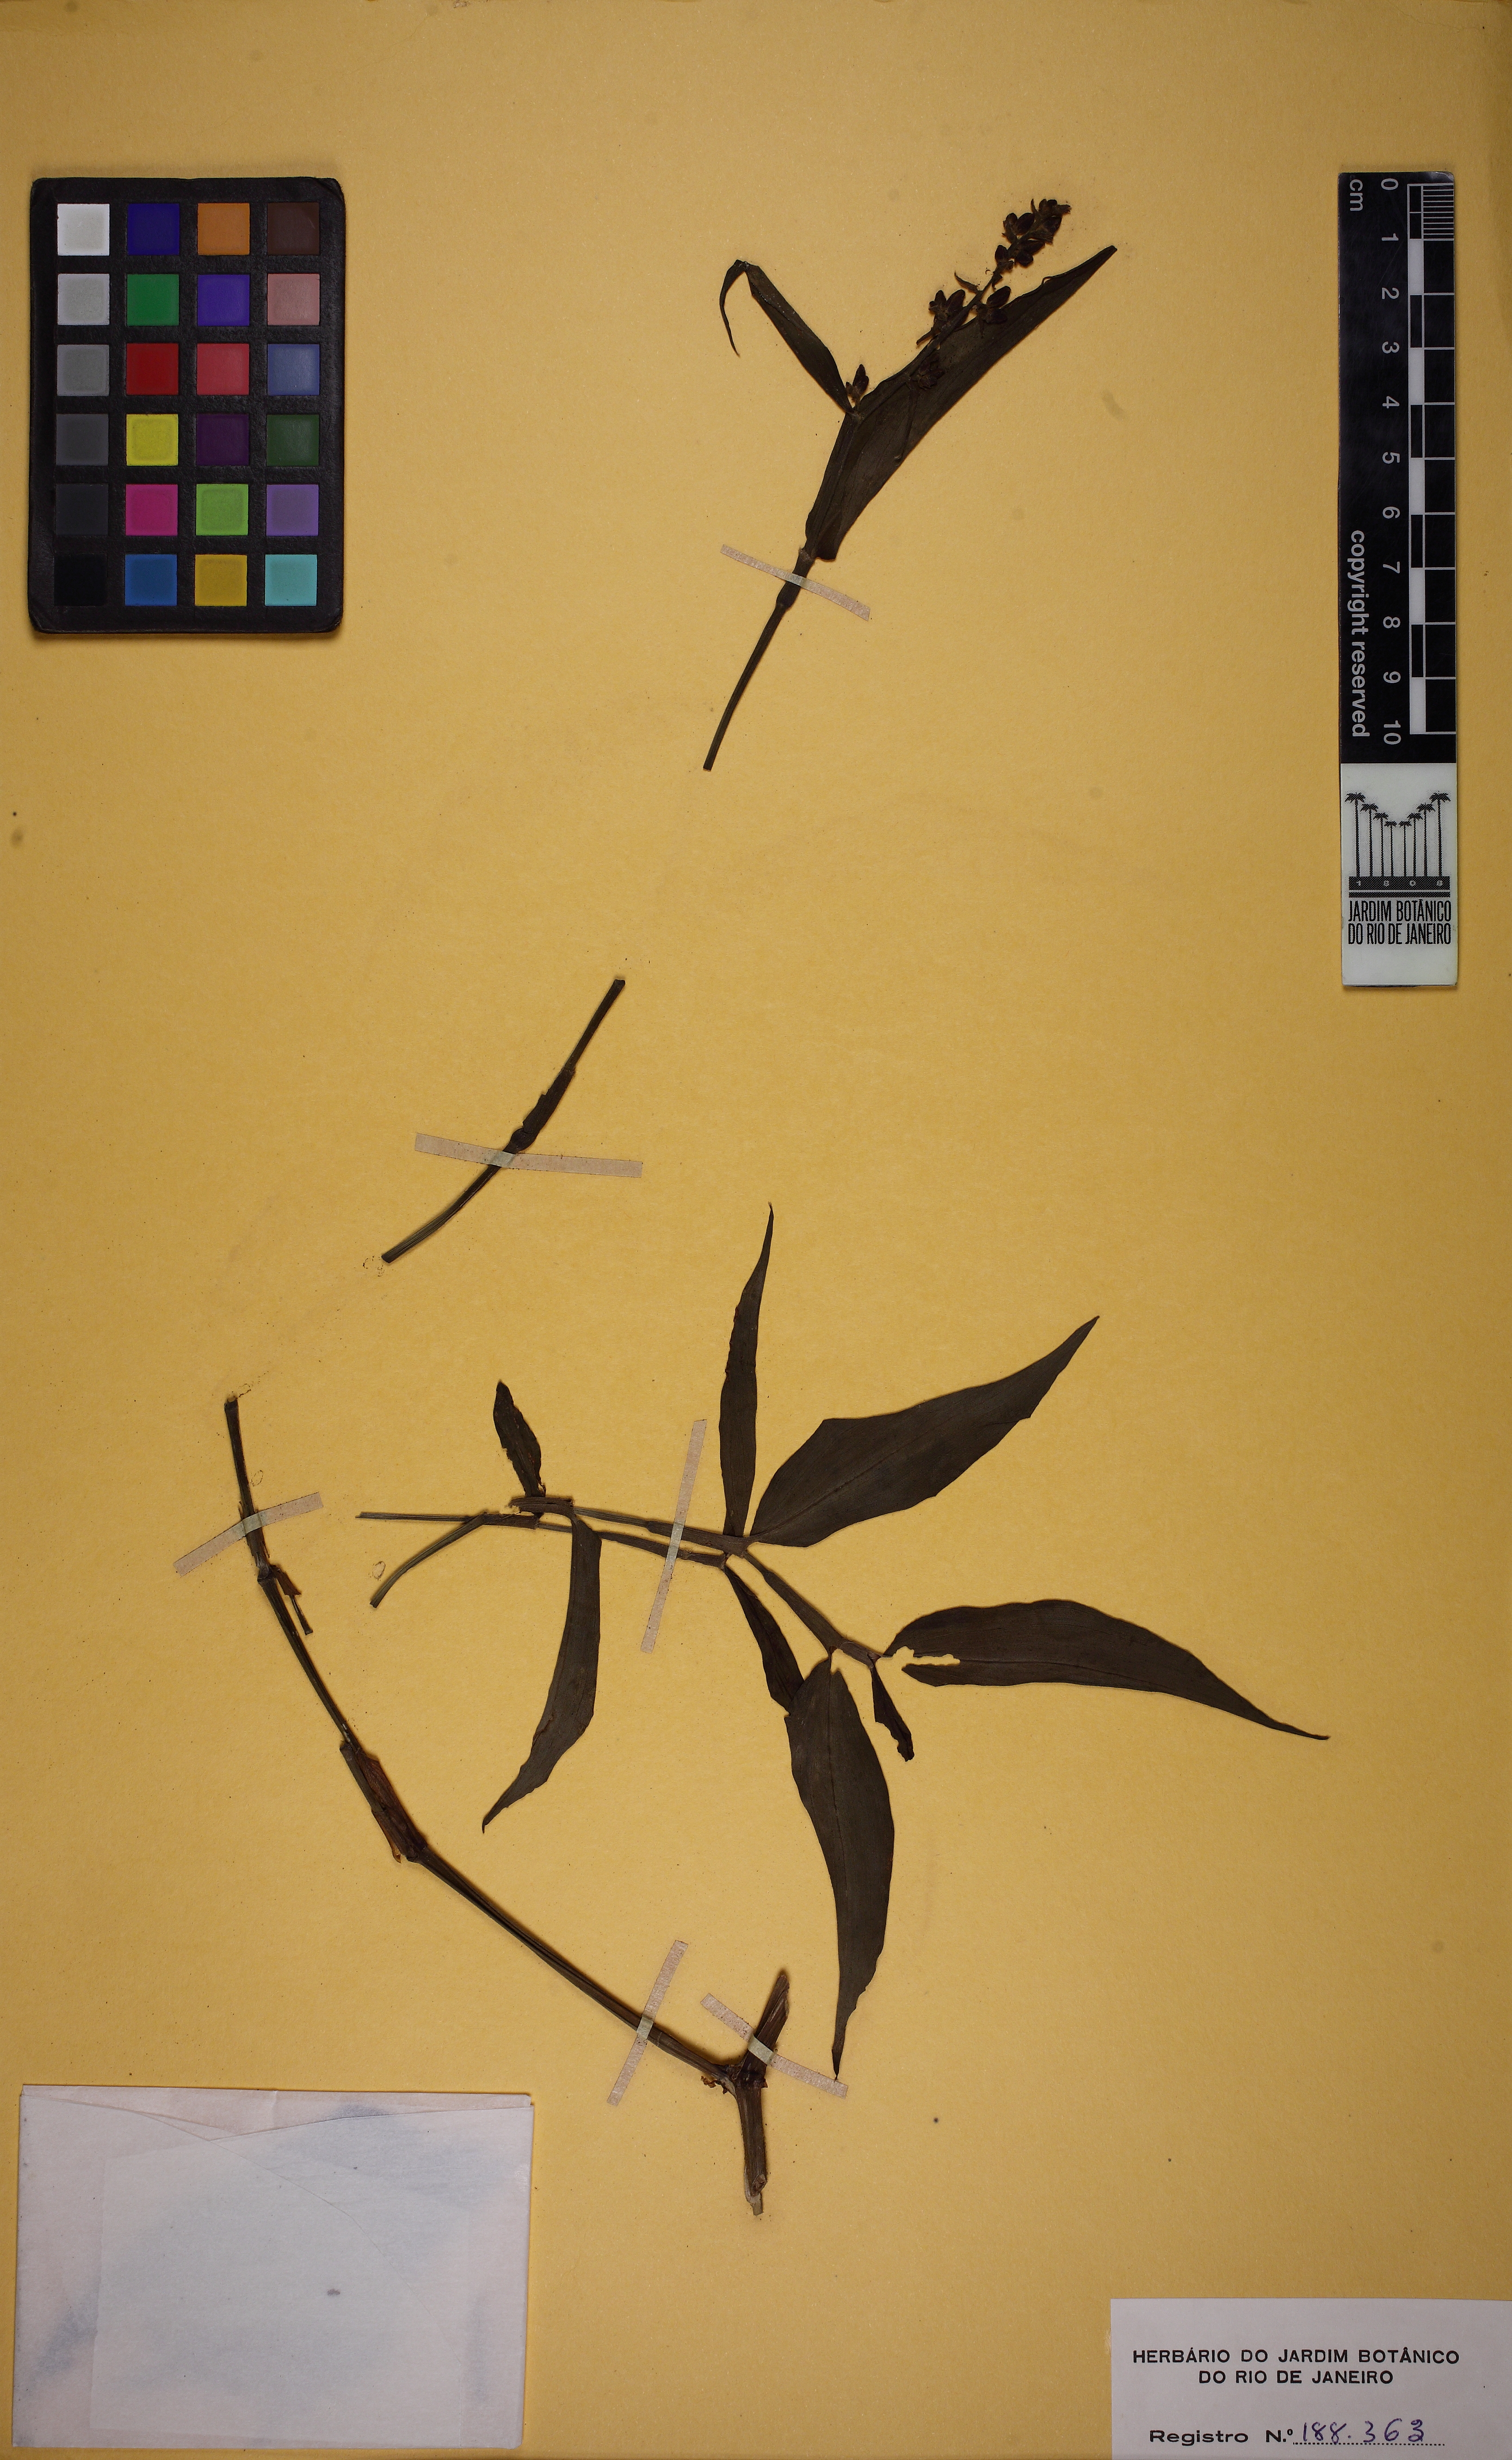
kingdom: Plantae
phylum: Tracheophyta
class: Liliopsida
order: Commelinales
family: Commelinaceae
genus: Dichorisandra
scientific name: Dichorisandra hexandra
